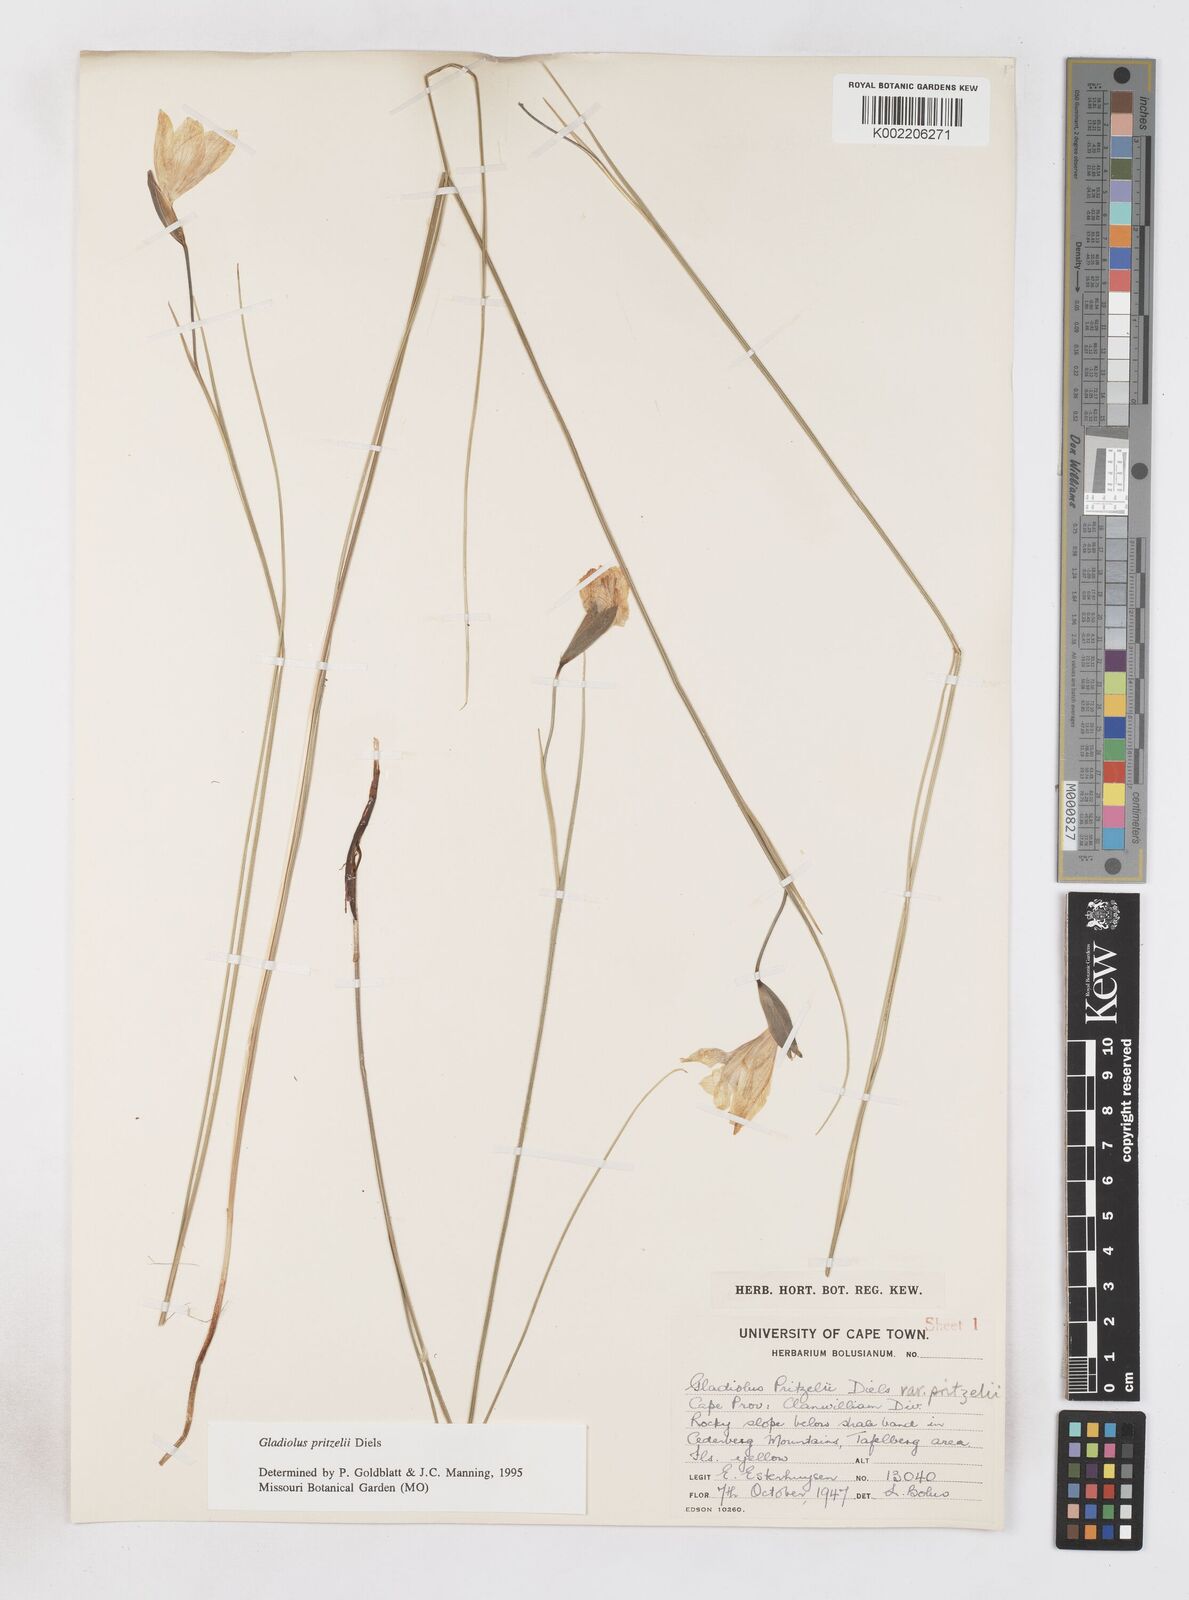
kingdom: Plantae
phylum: Tracheophyta
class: Liliopsida
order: Asparagales
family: Iridaceae
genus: Gladiolus
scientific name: Gladiolus pritzelii
